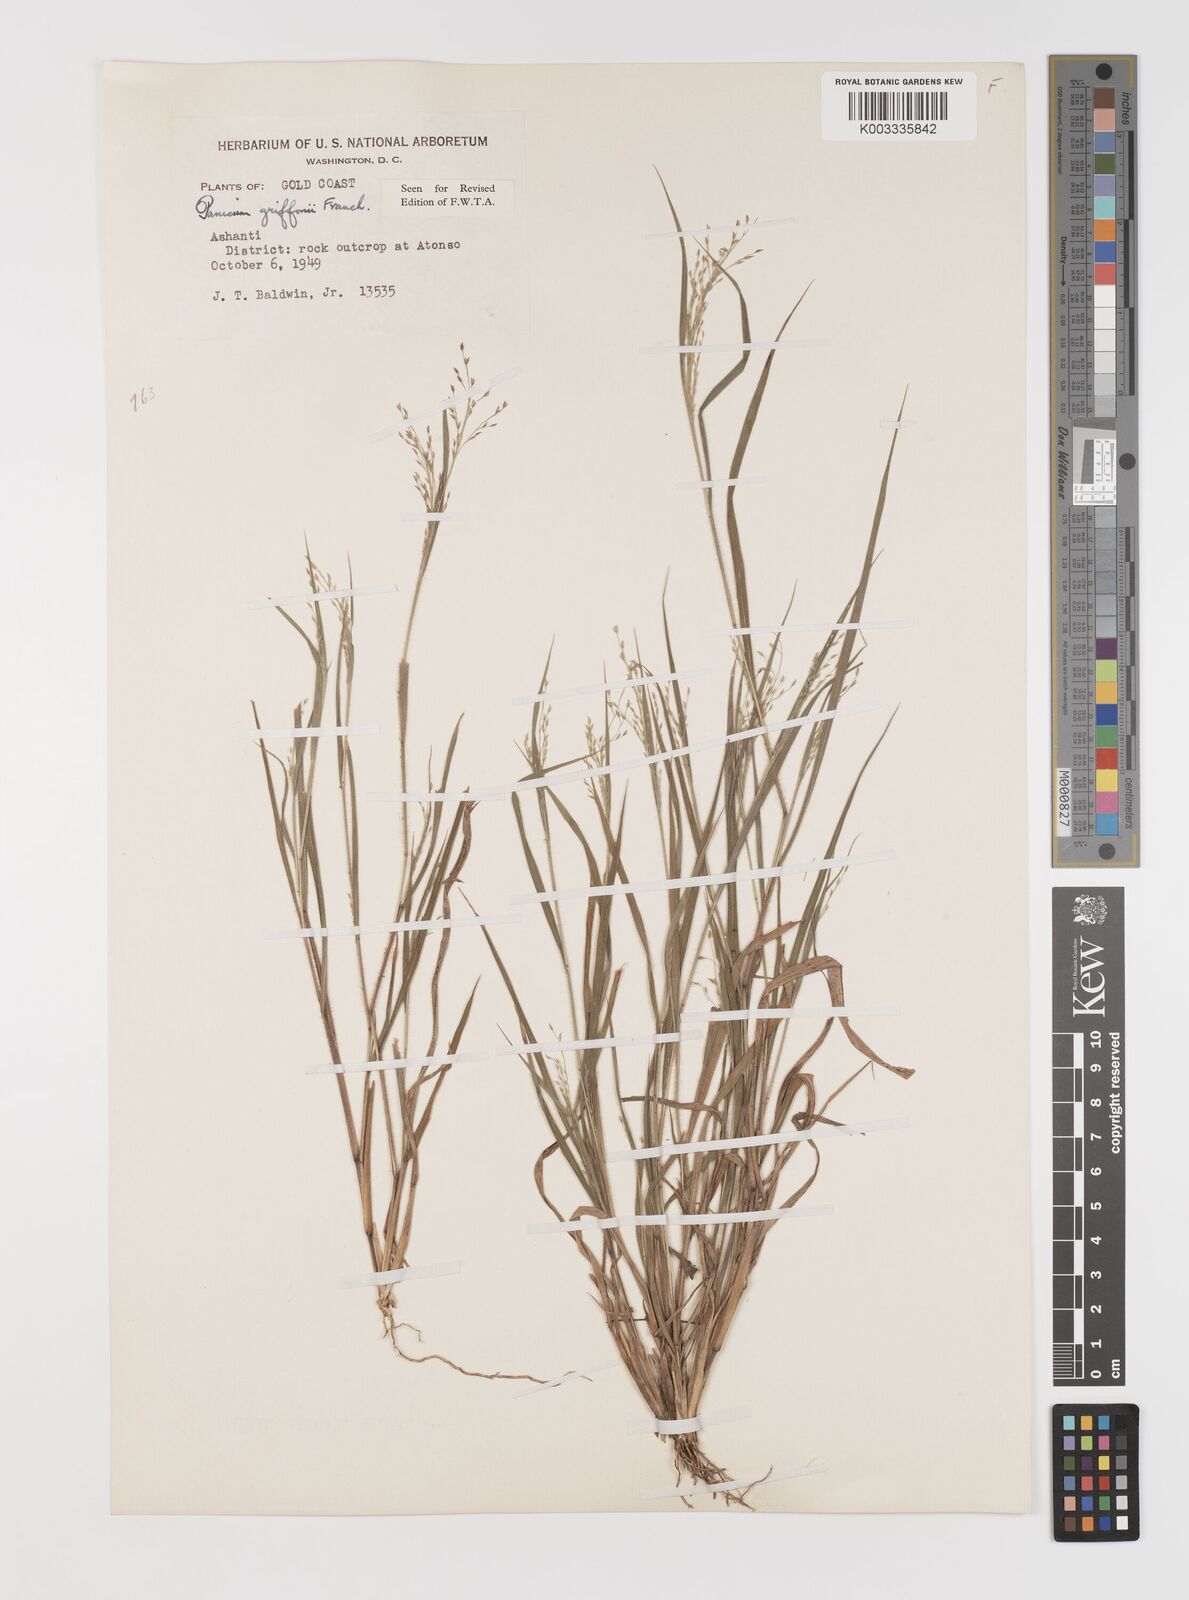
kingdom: Plantae
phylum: Tracheophyta
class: Liliopsida
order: Poales
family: Poaceae
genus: Panicum
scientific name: Panicum griffonii
